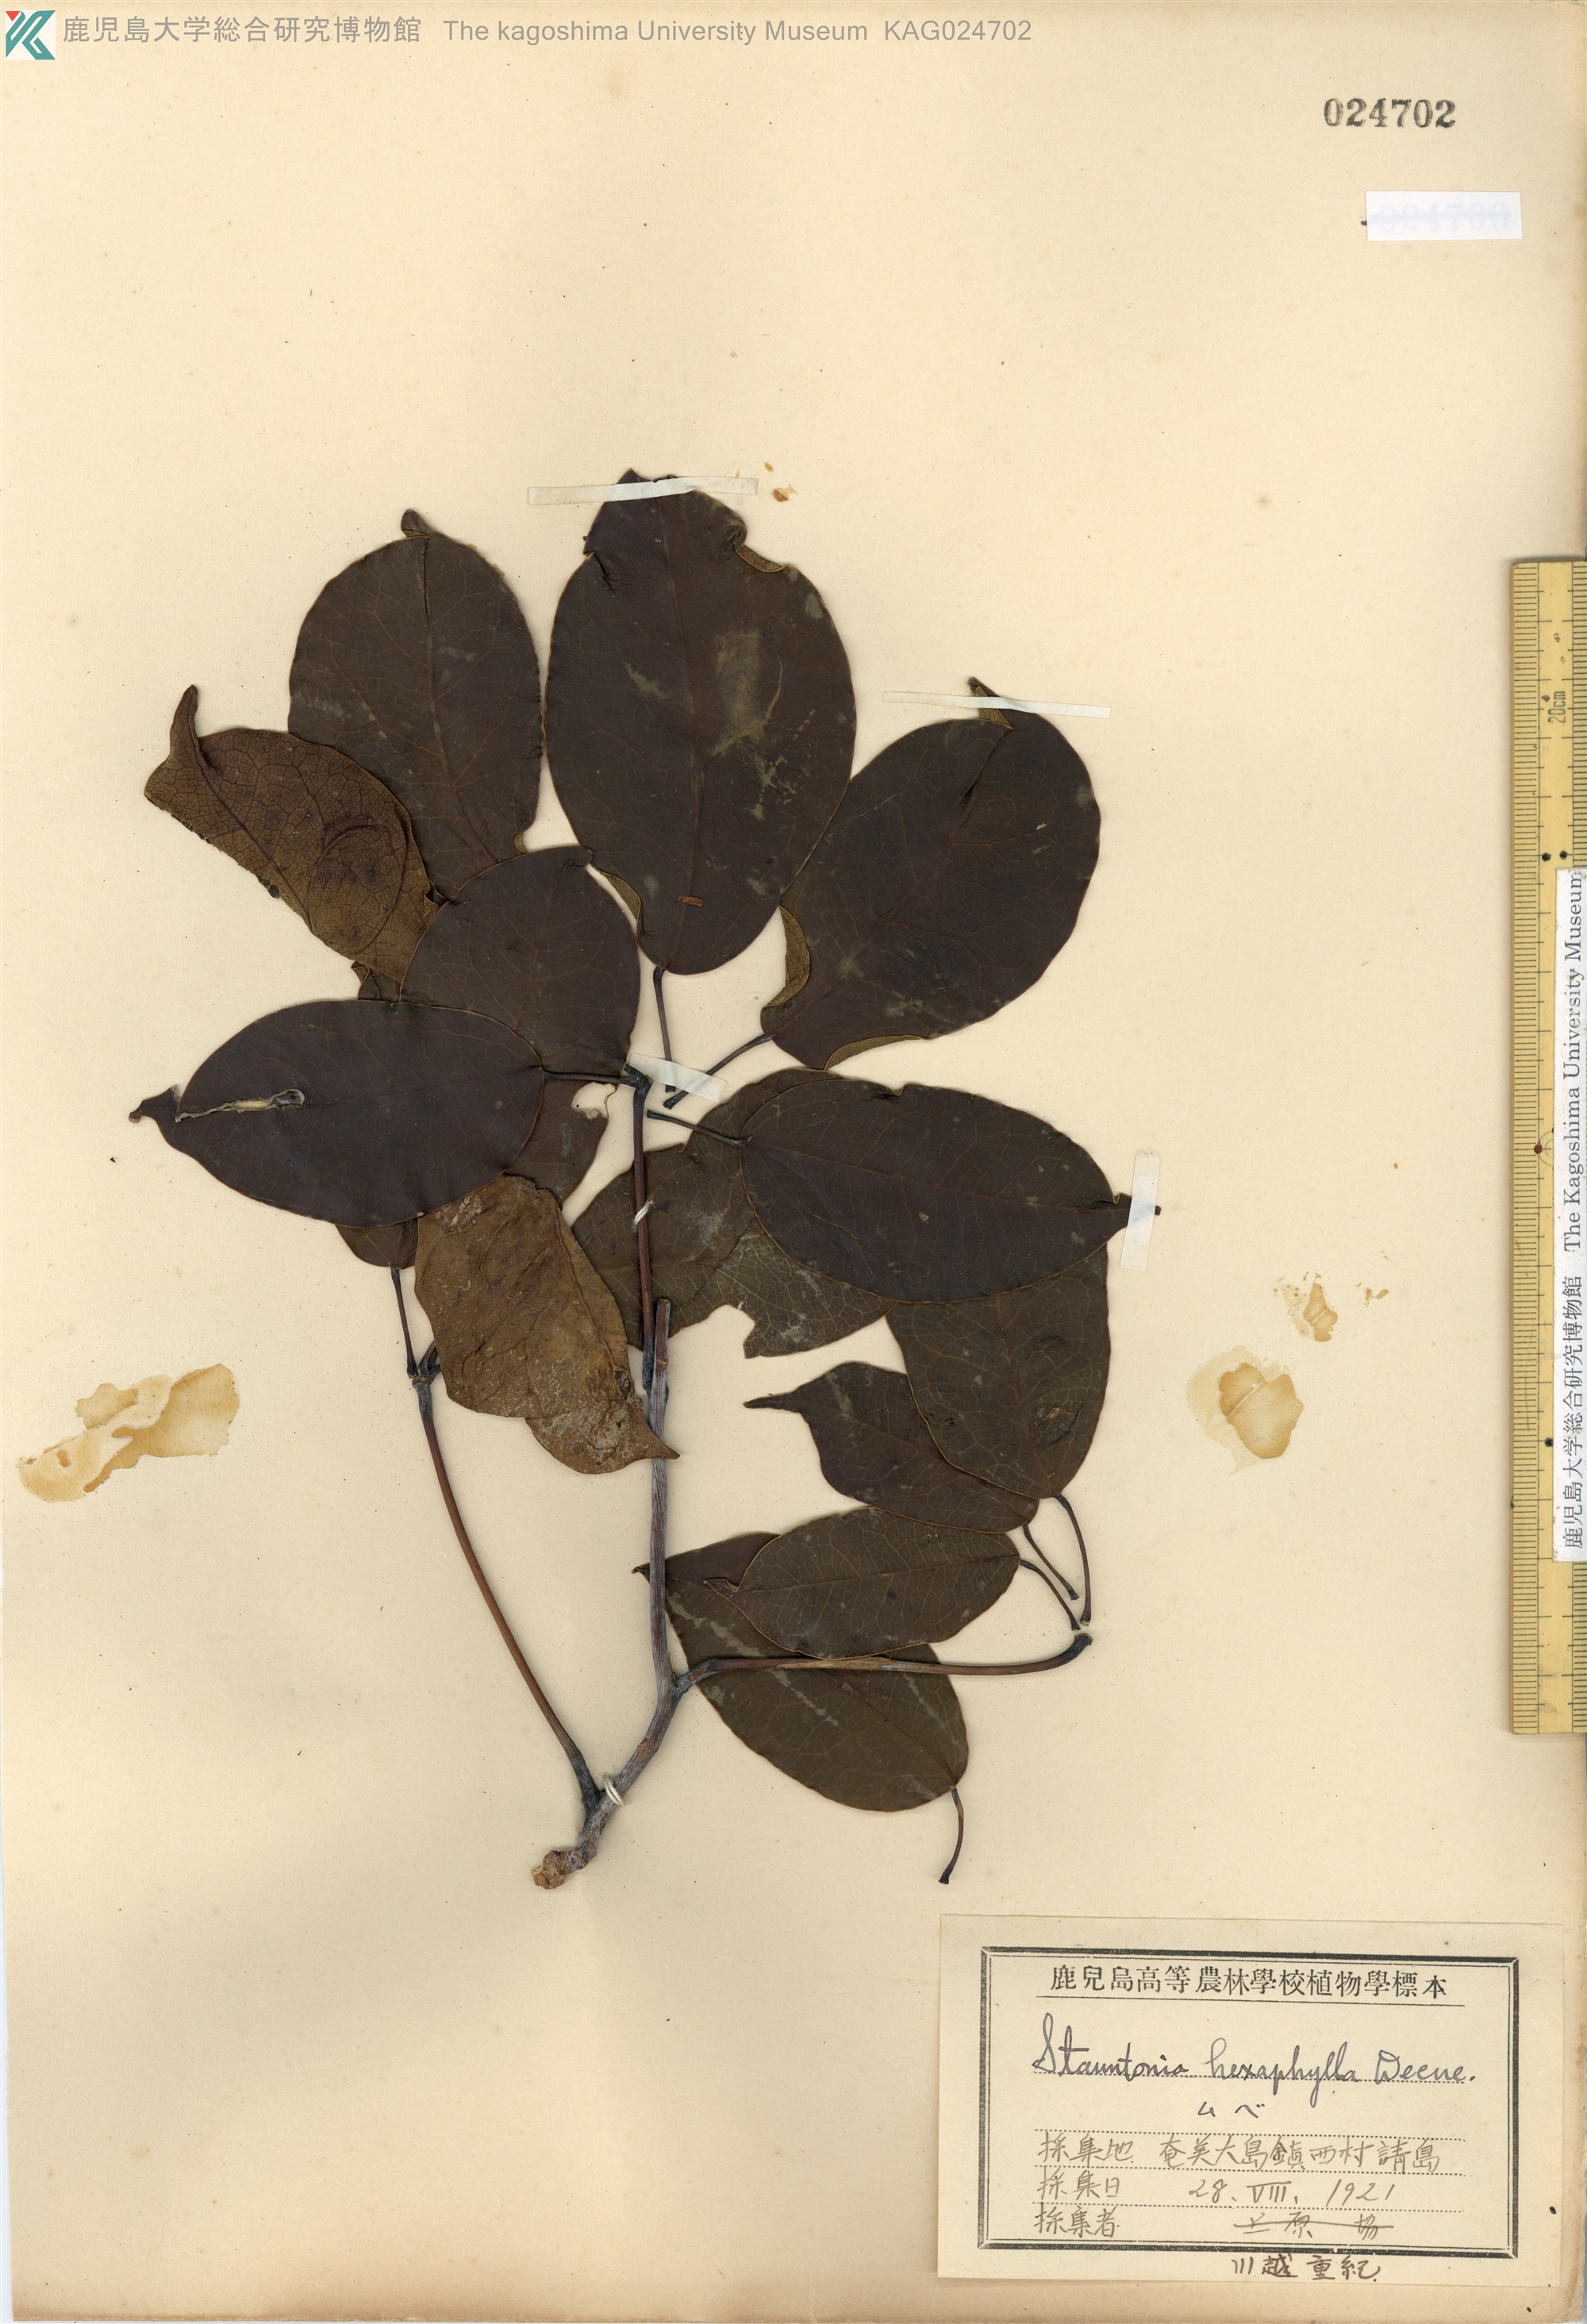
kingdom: Plantae
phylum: Tracheophyta
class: Magnoliopsida
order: Ranunculales
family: Lardizabalaceae
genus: Stauntonia
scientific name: Stauntonia hexaphylla
